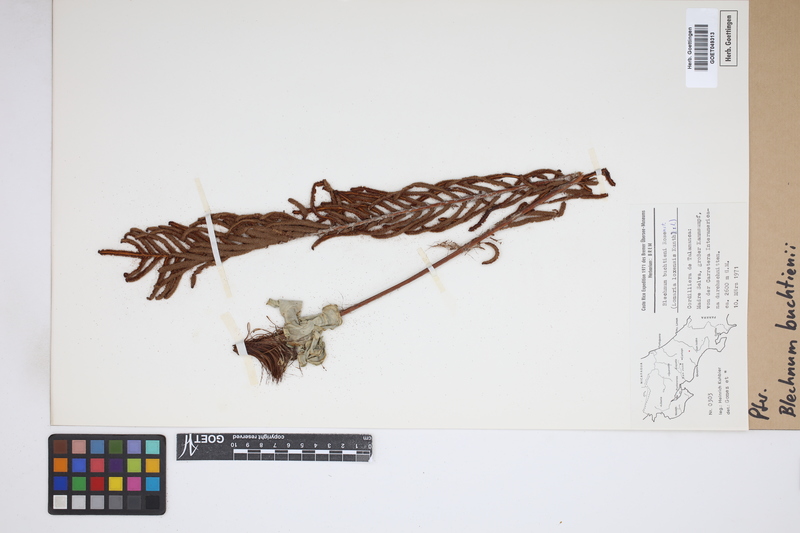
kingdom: Plantae
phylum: Tracheophyta
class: Polypodiopsida
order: Polypodiales
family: Blechnaceae
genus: Lomariocycas
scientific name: Lomariocycas aurata
